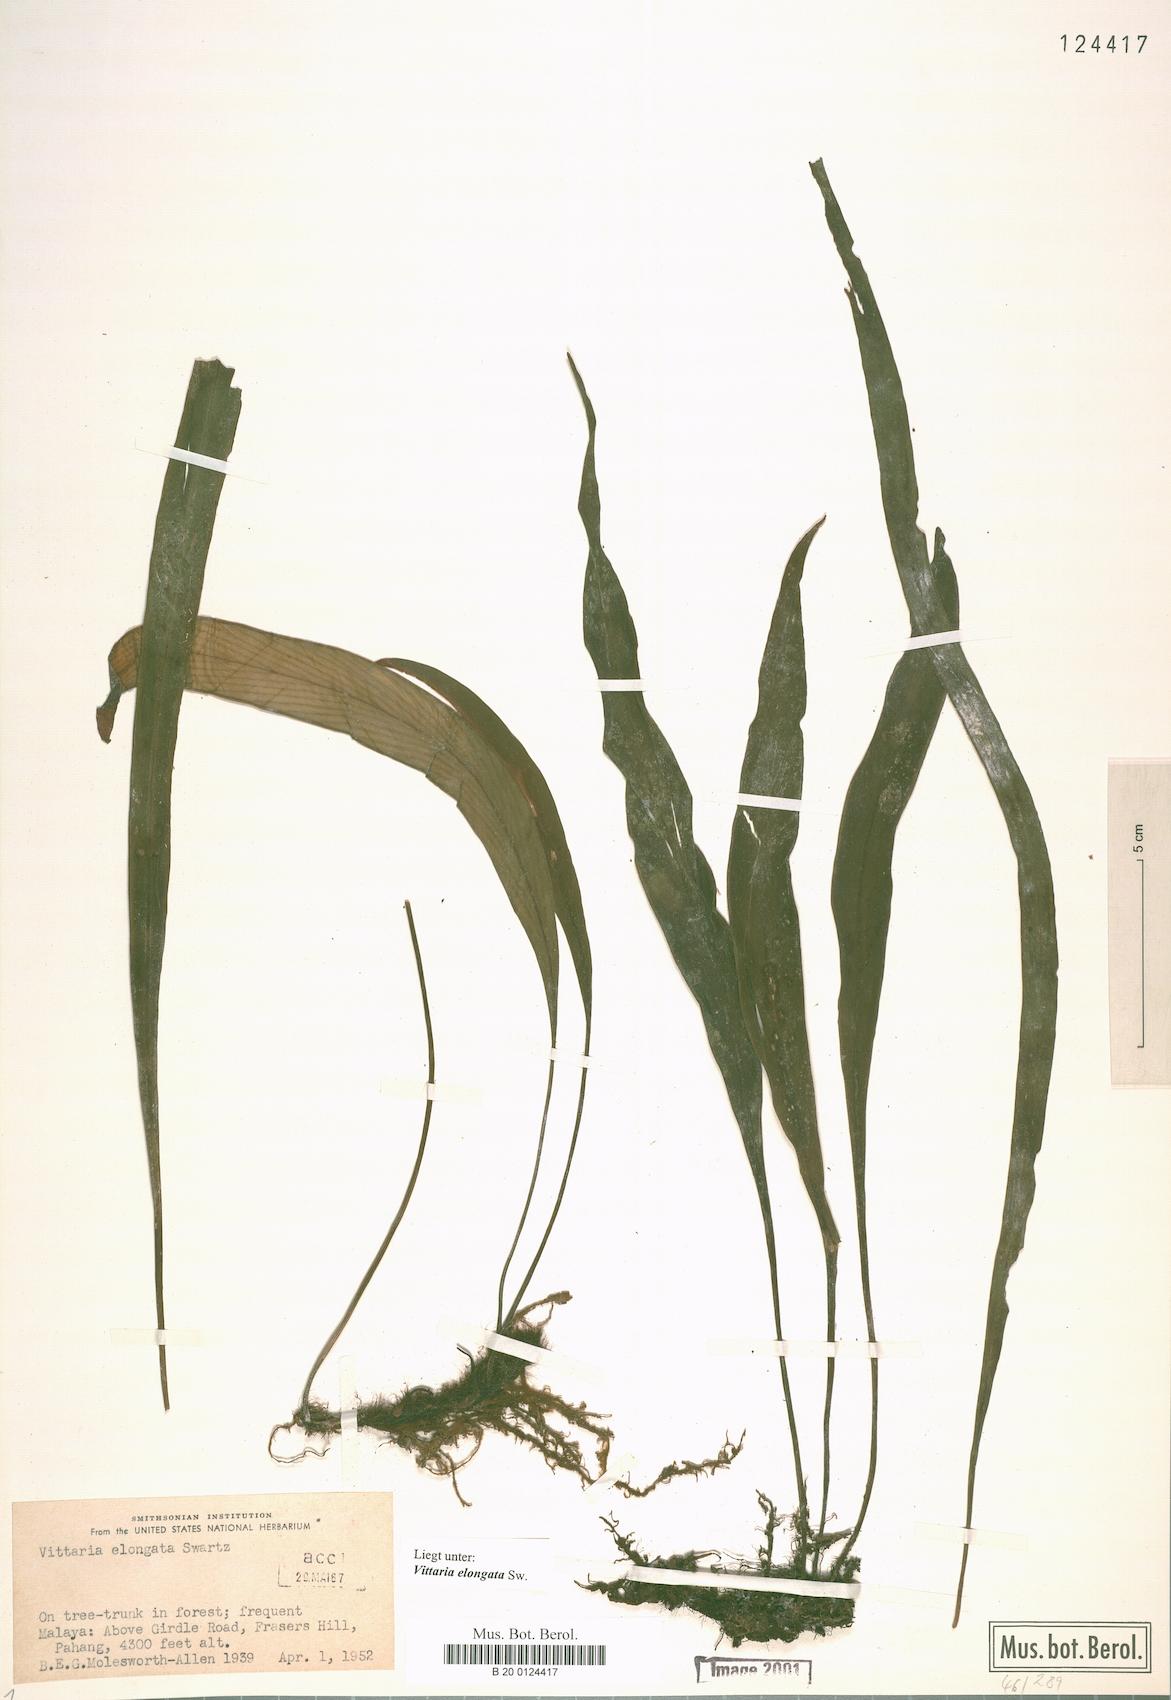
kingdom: Plantae
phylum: Tracheophyta
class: Polypodiopsida
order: Polypodiales
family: Pteridaceae
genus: Haplopteris
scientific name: Haplopteris elongata
